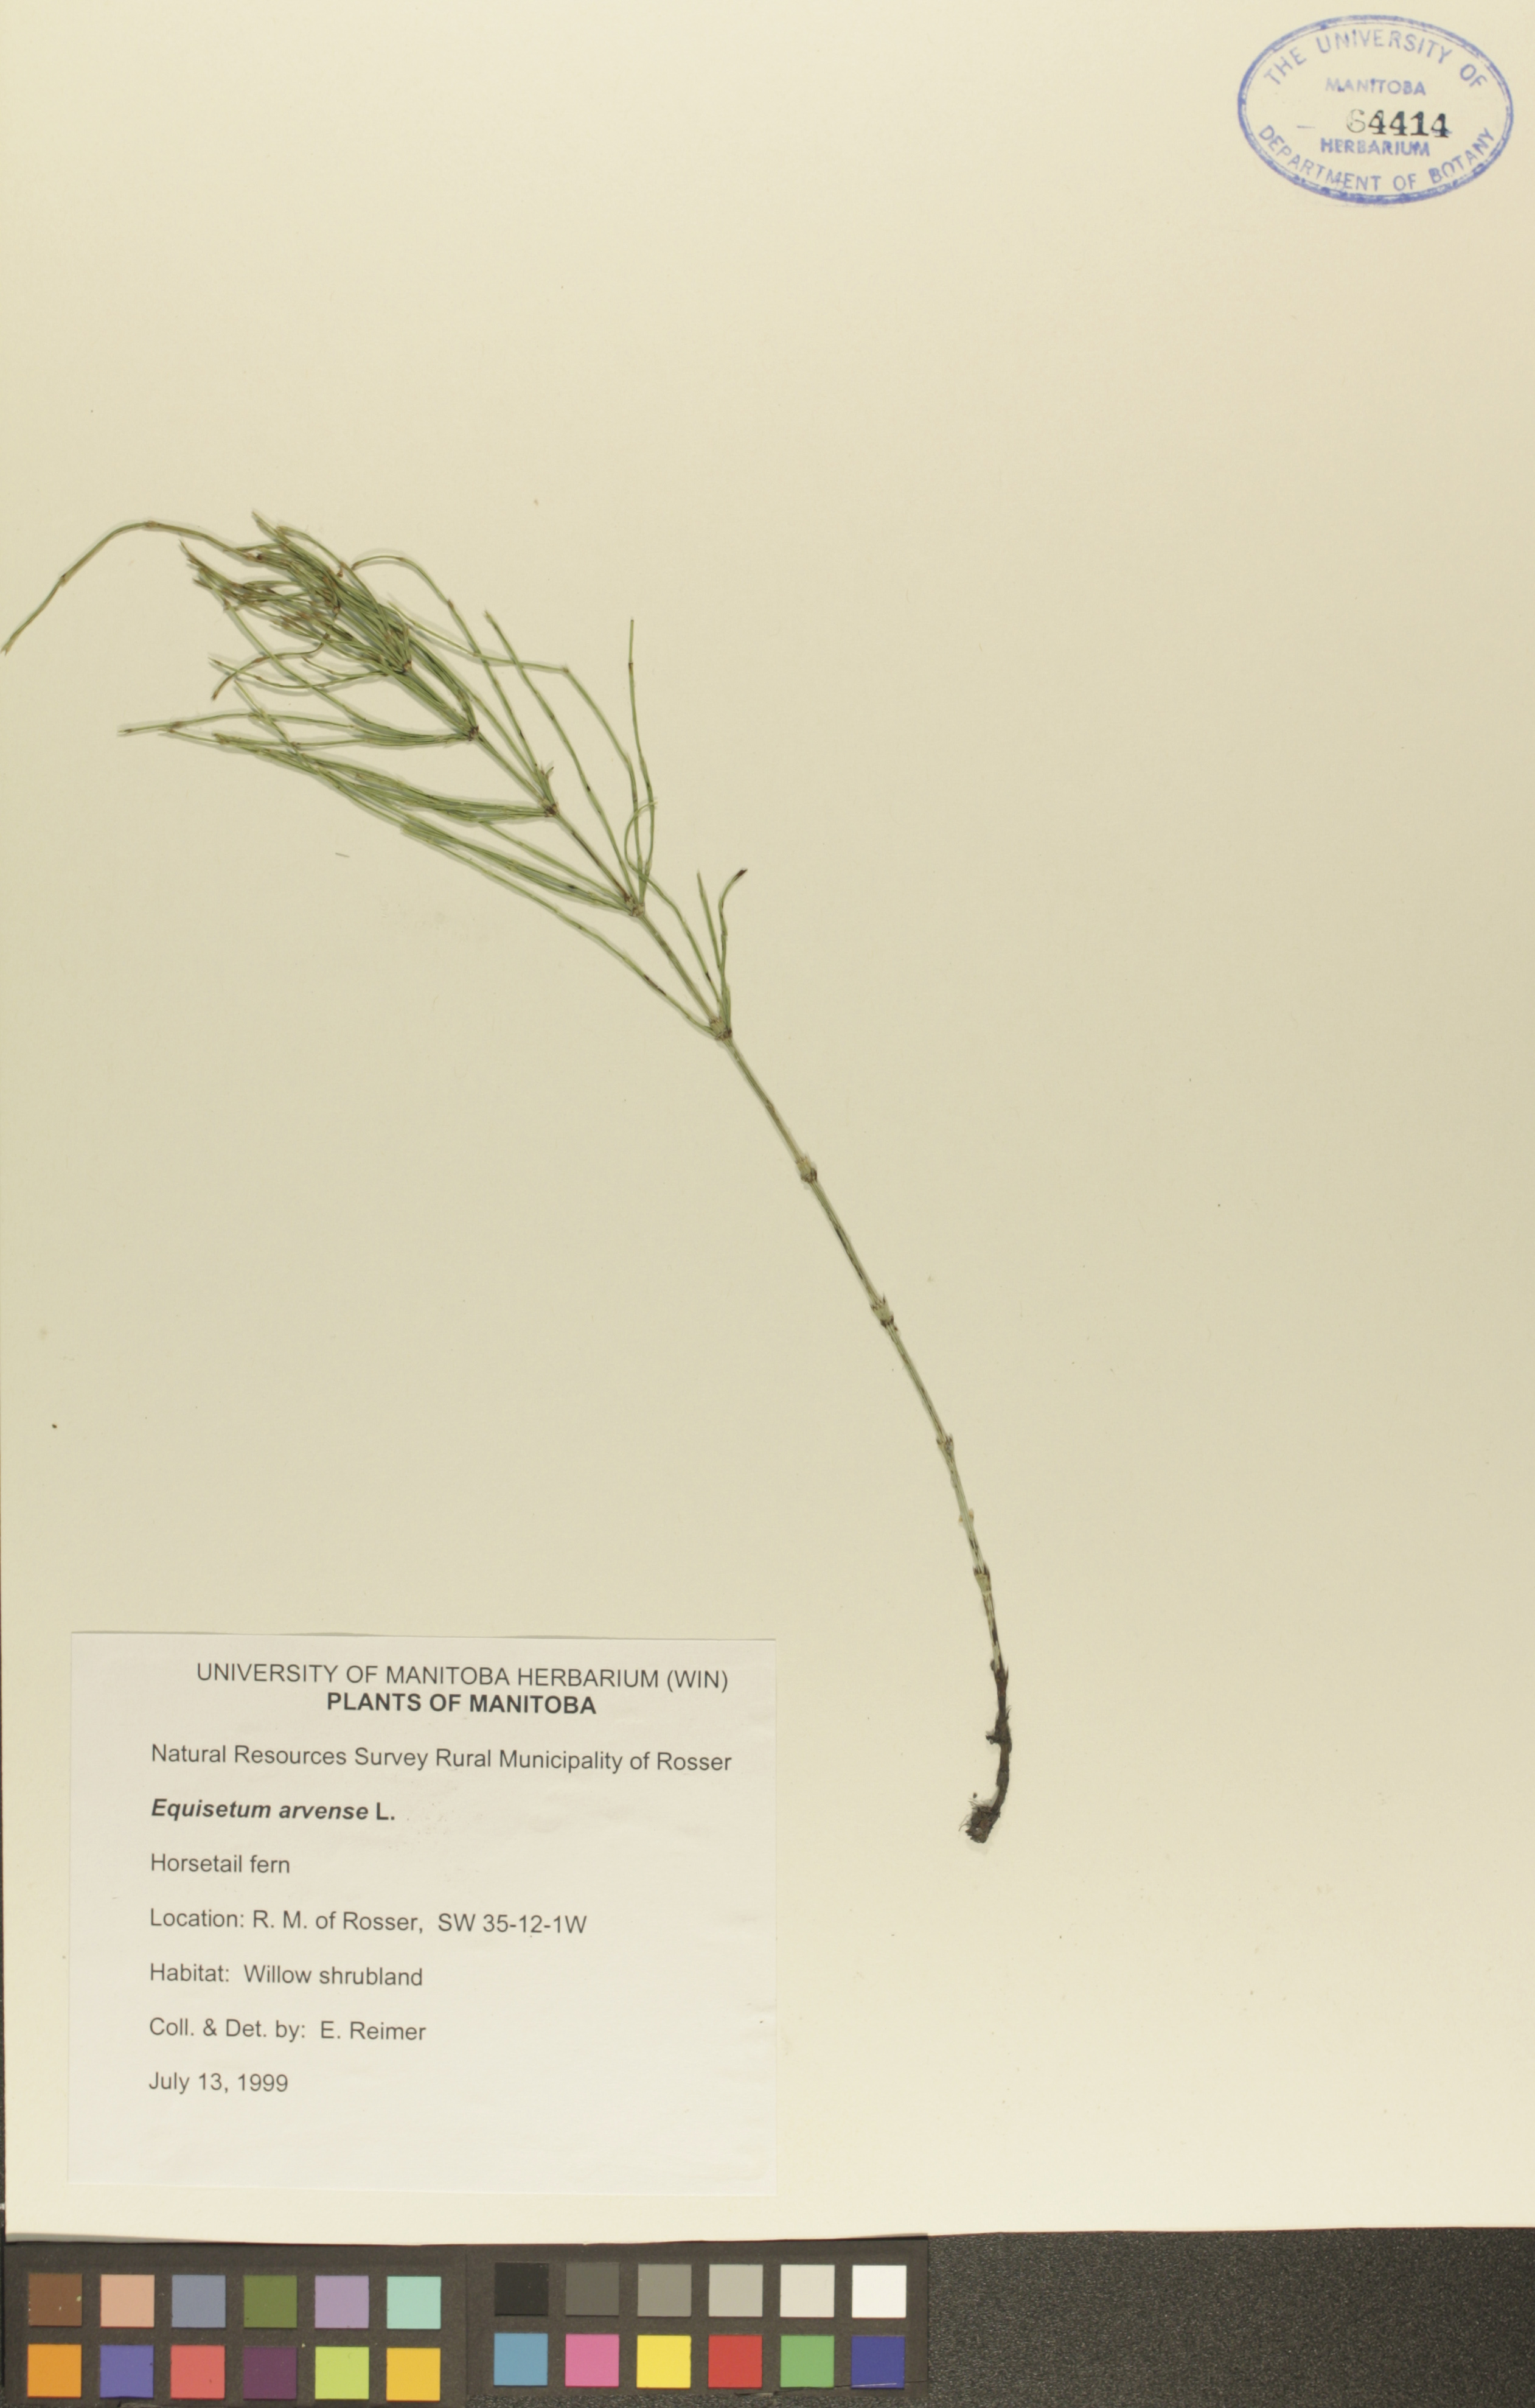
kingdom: Plantae
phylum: Tracheophyta
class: Polypodiopsida
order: Equisetales
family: Equisetaceae
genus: Equisetum
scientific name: Equisetum arvense
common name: Field horsetail
